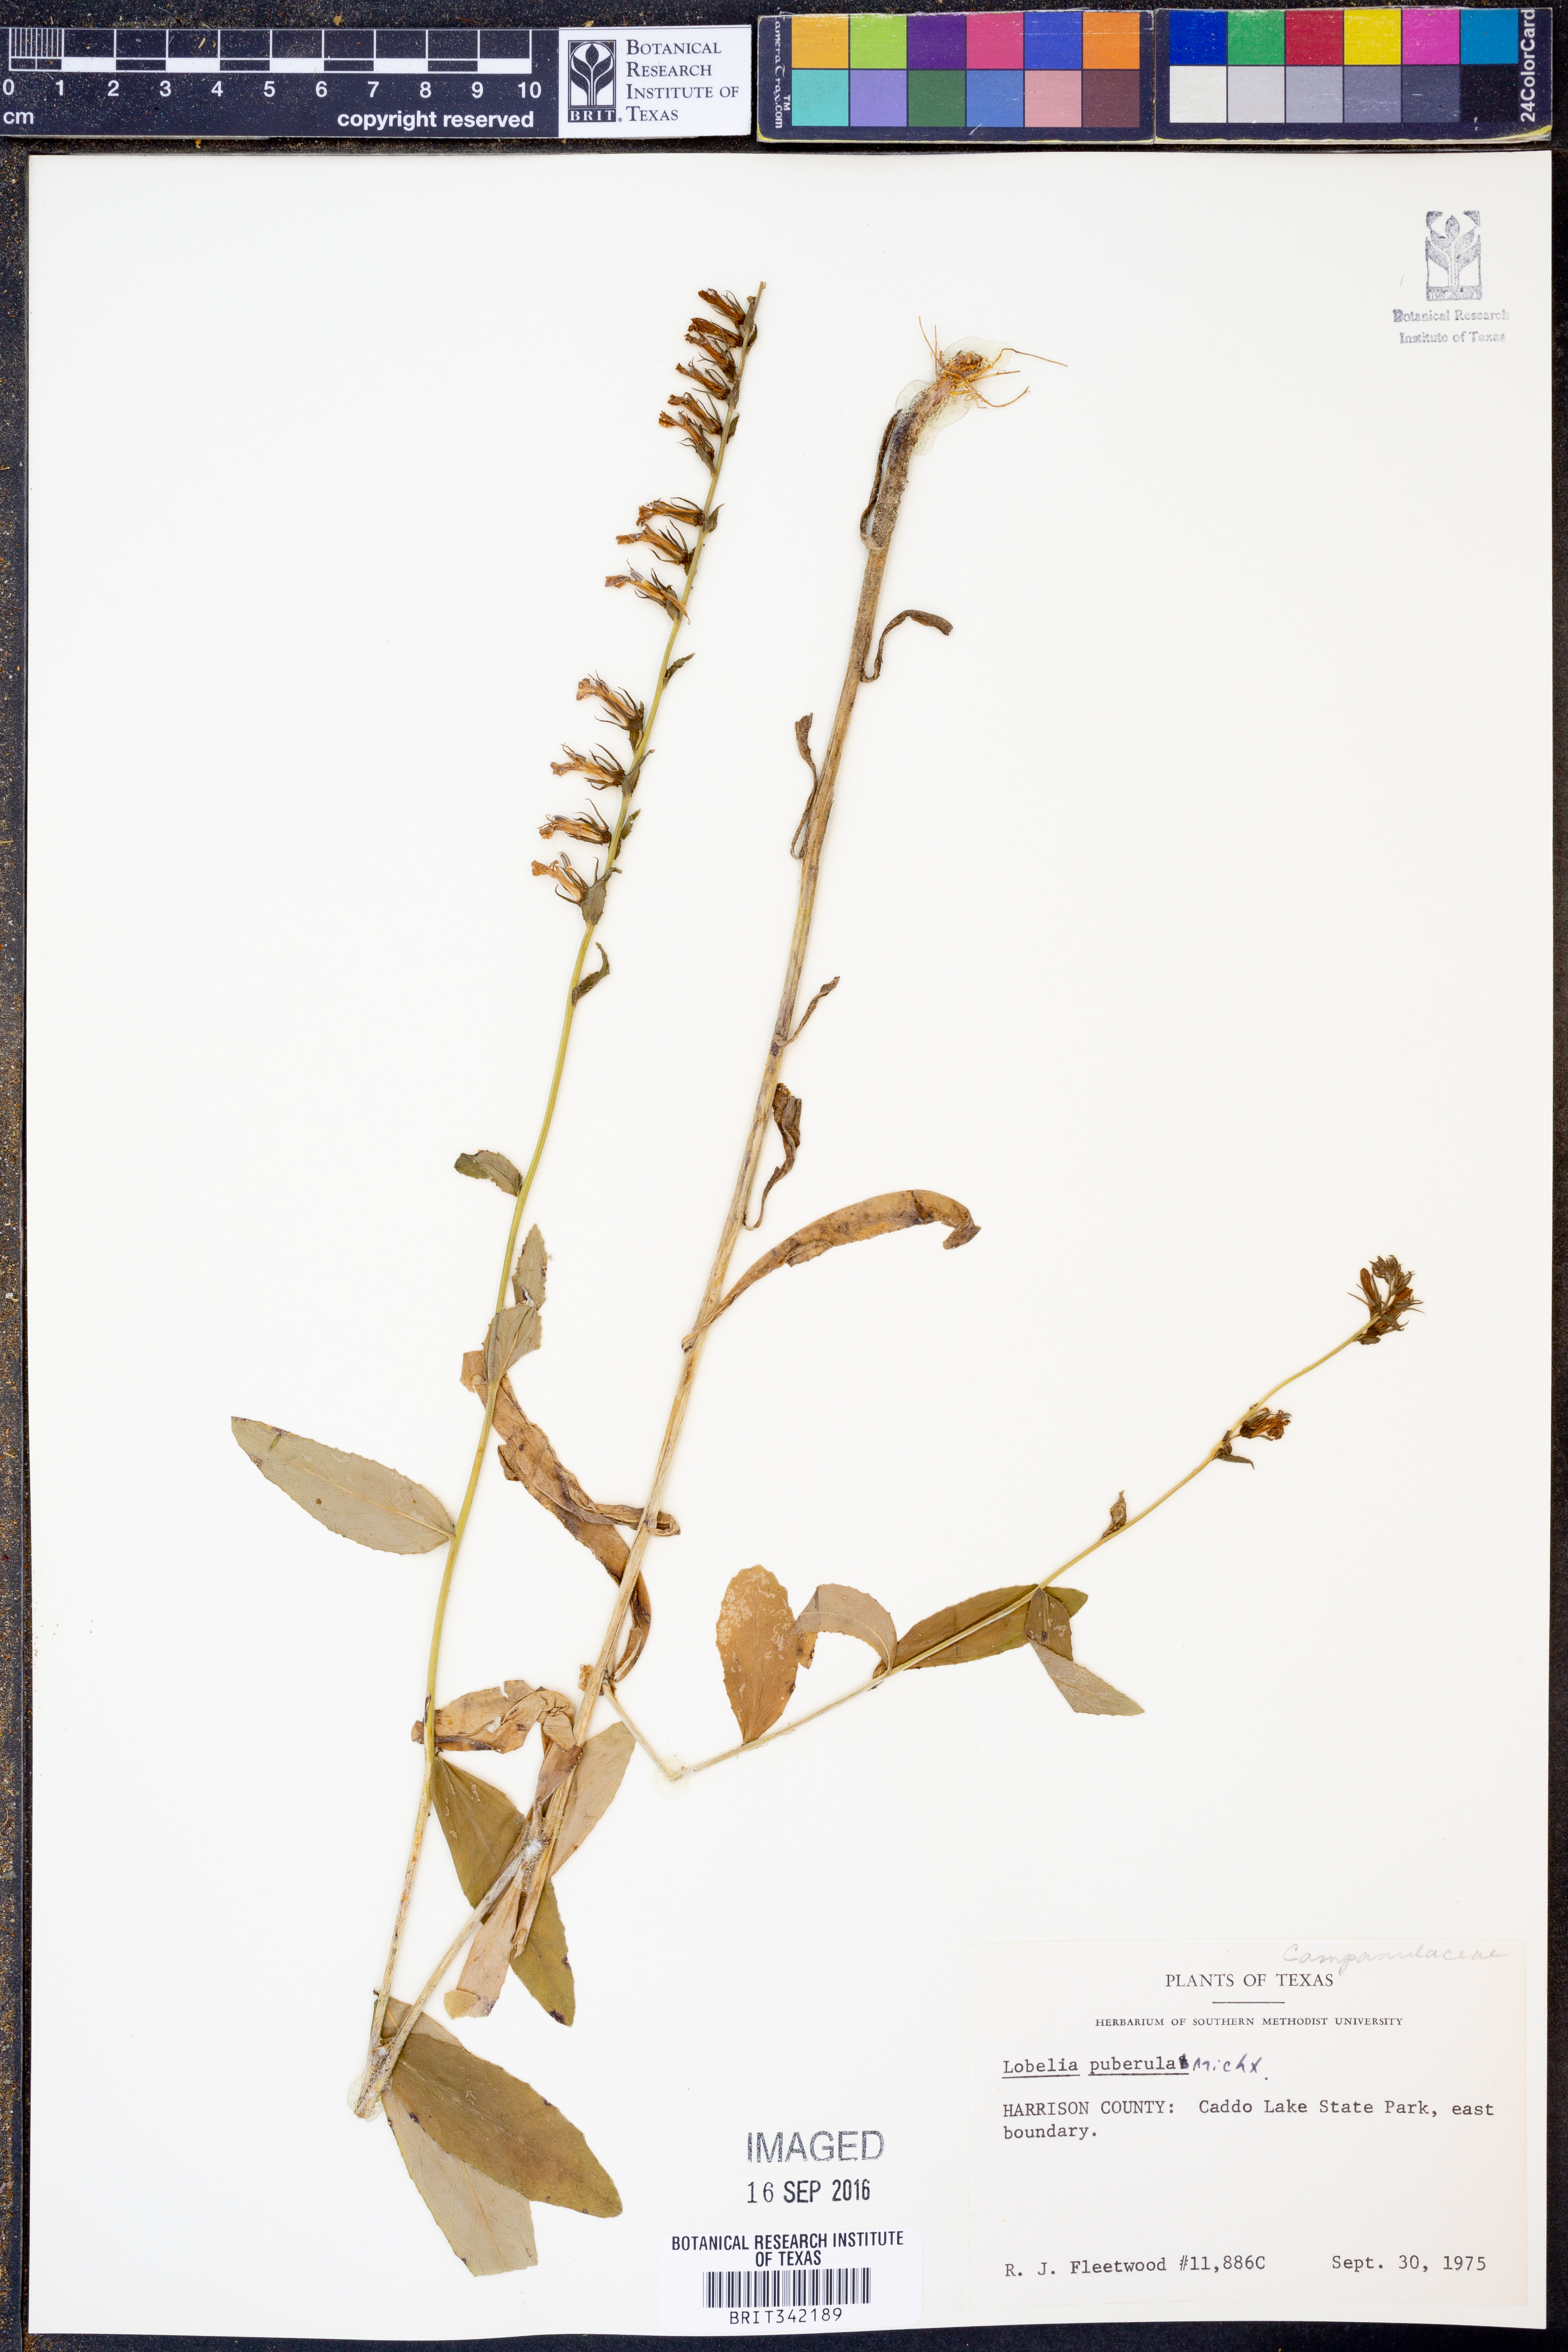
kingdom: Plantae
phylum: Tracheophyta
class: Magnoliopsida
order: Asterales
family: Campanulaceae
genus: Lobelia
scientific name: Lobelia puberula
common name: Purple dewdrop
